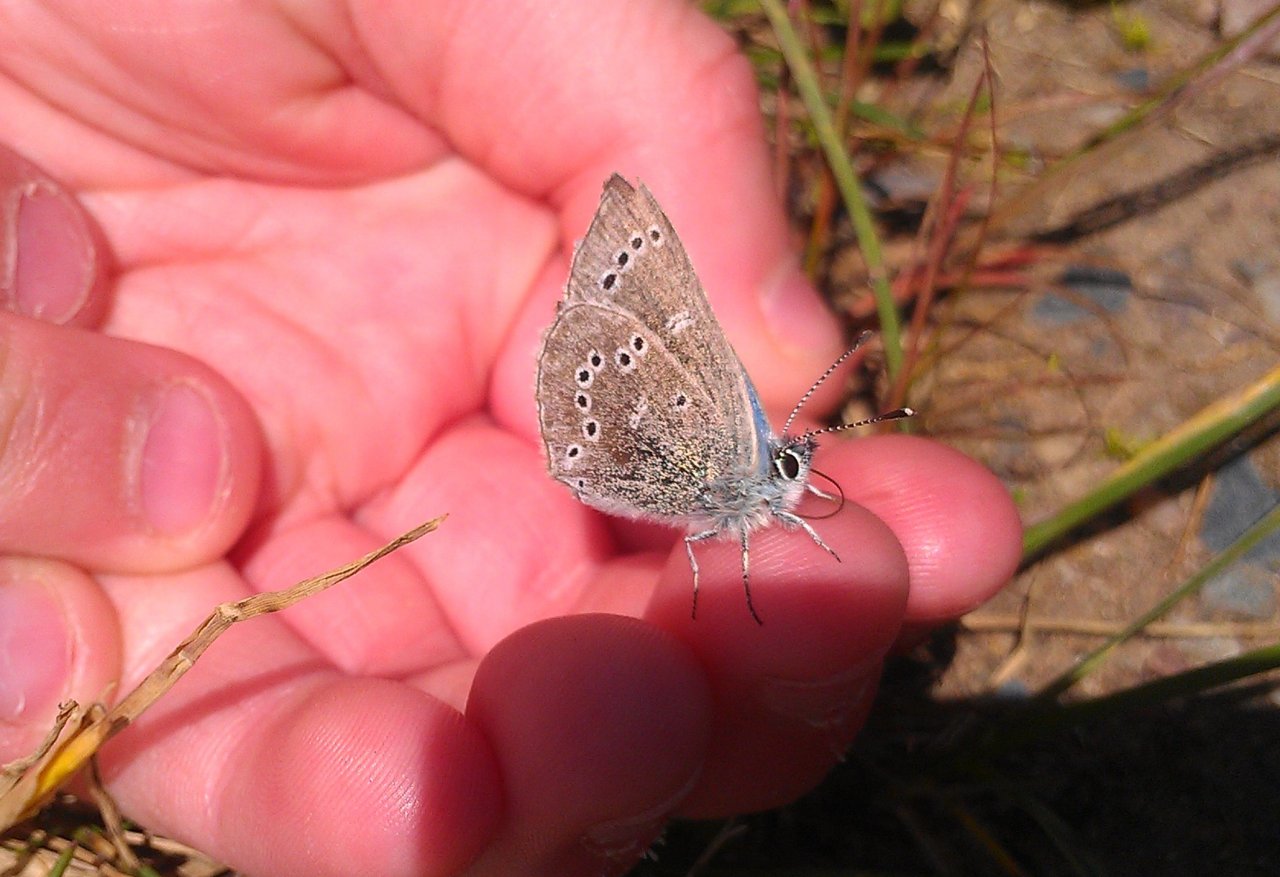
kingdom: Animalia
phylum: Arthropoda
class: Insecta
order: Lepidoptera
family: Lycaenidae
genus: Glaucopsyche
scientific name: Glaucopsyche lygdamus
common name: Silvery Blue
